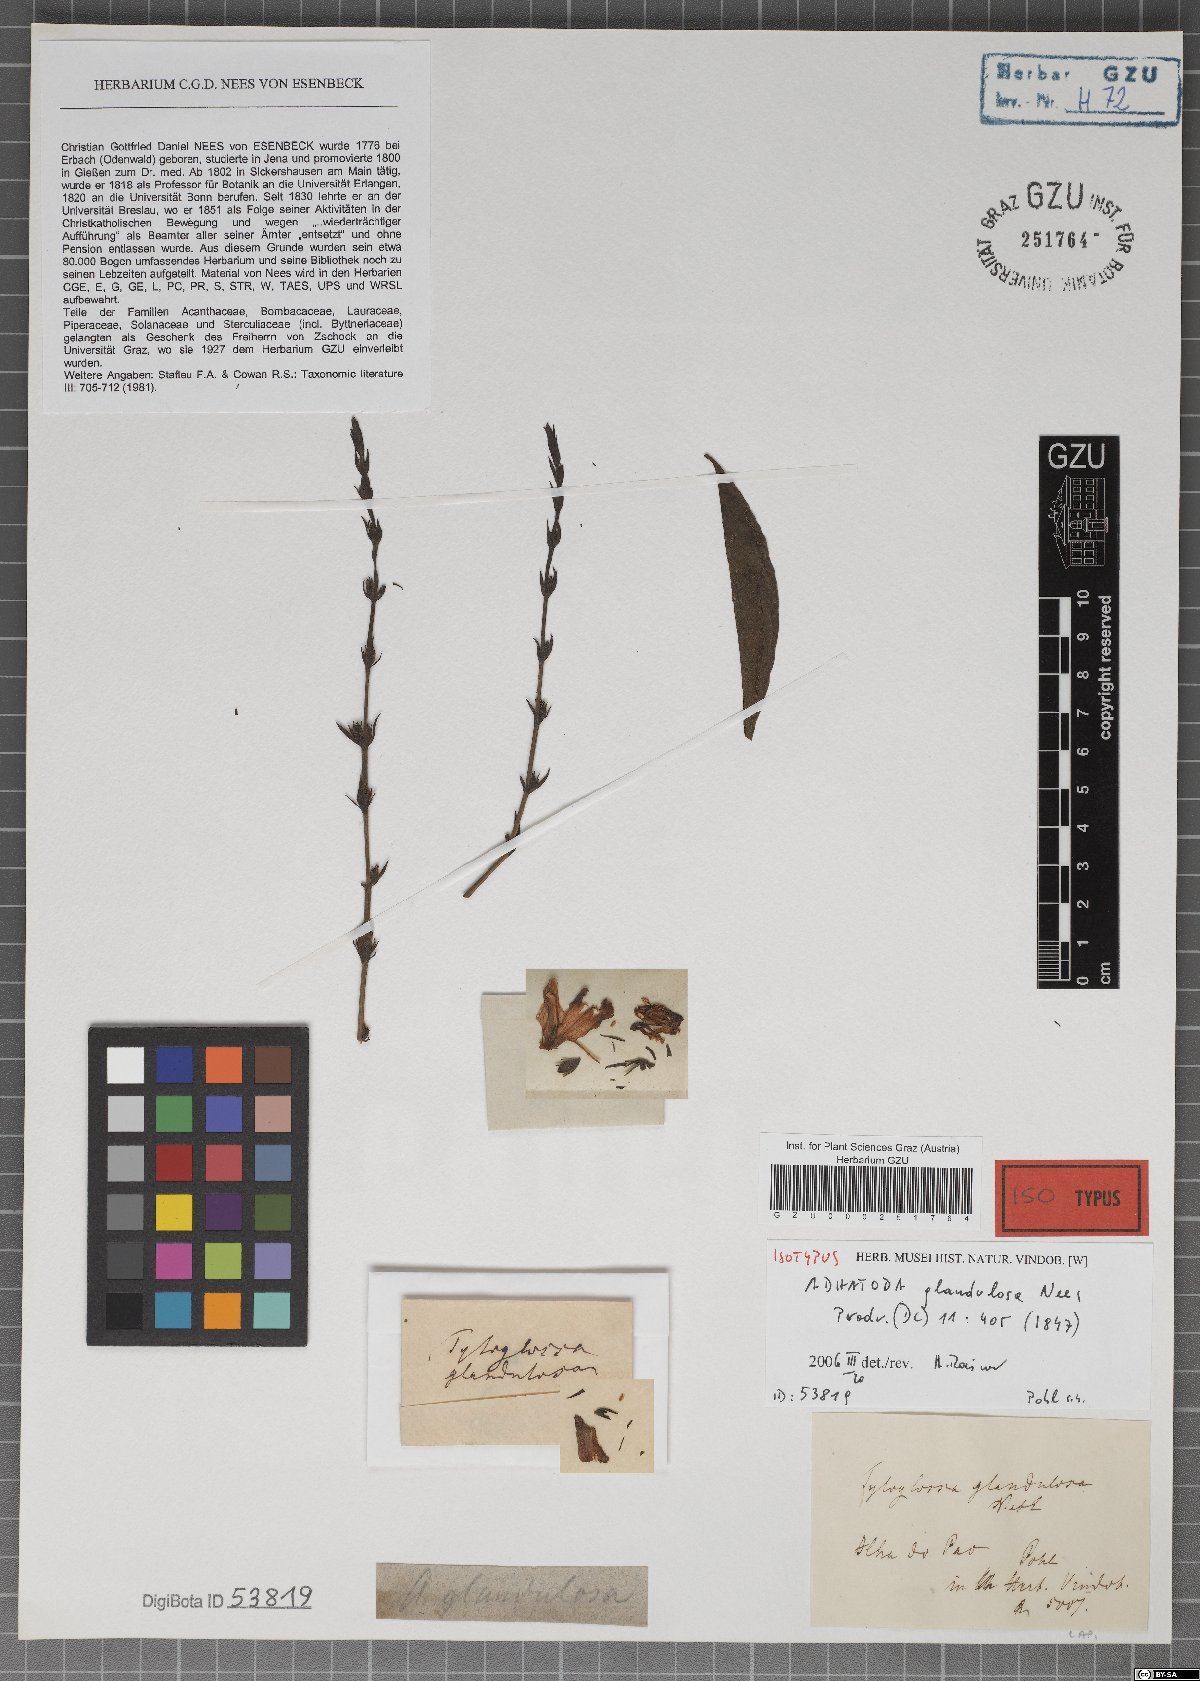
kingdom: Plantae
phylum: Tracheophyta
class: Magnoliopsida
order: Lamiales
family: Acanthaceae
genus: Justicia
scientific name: Justicia goianiensis
